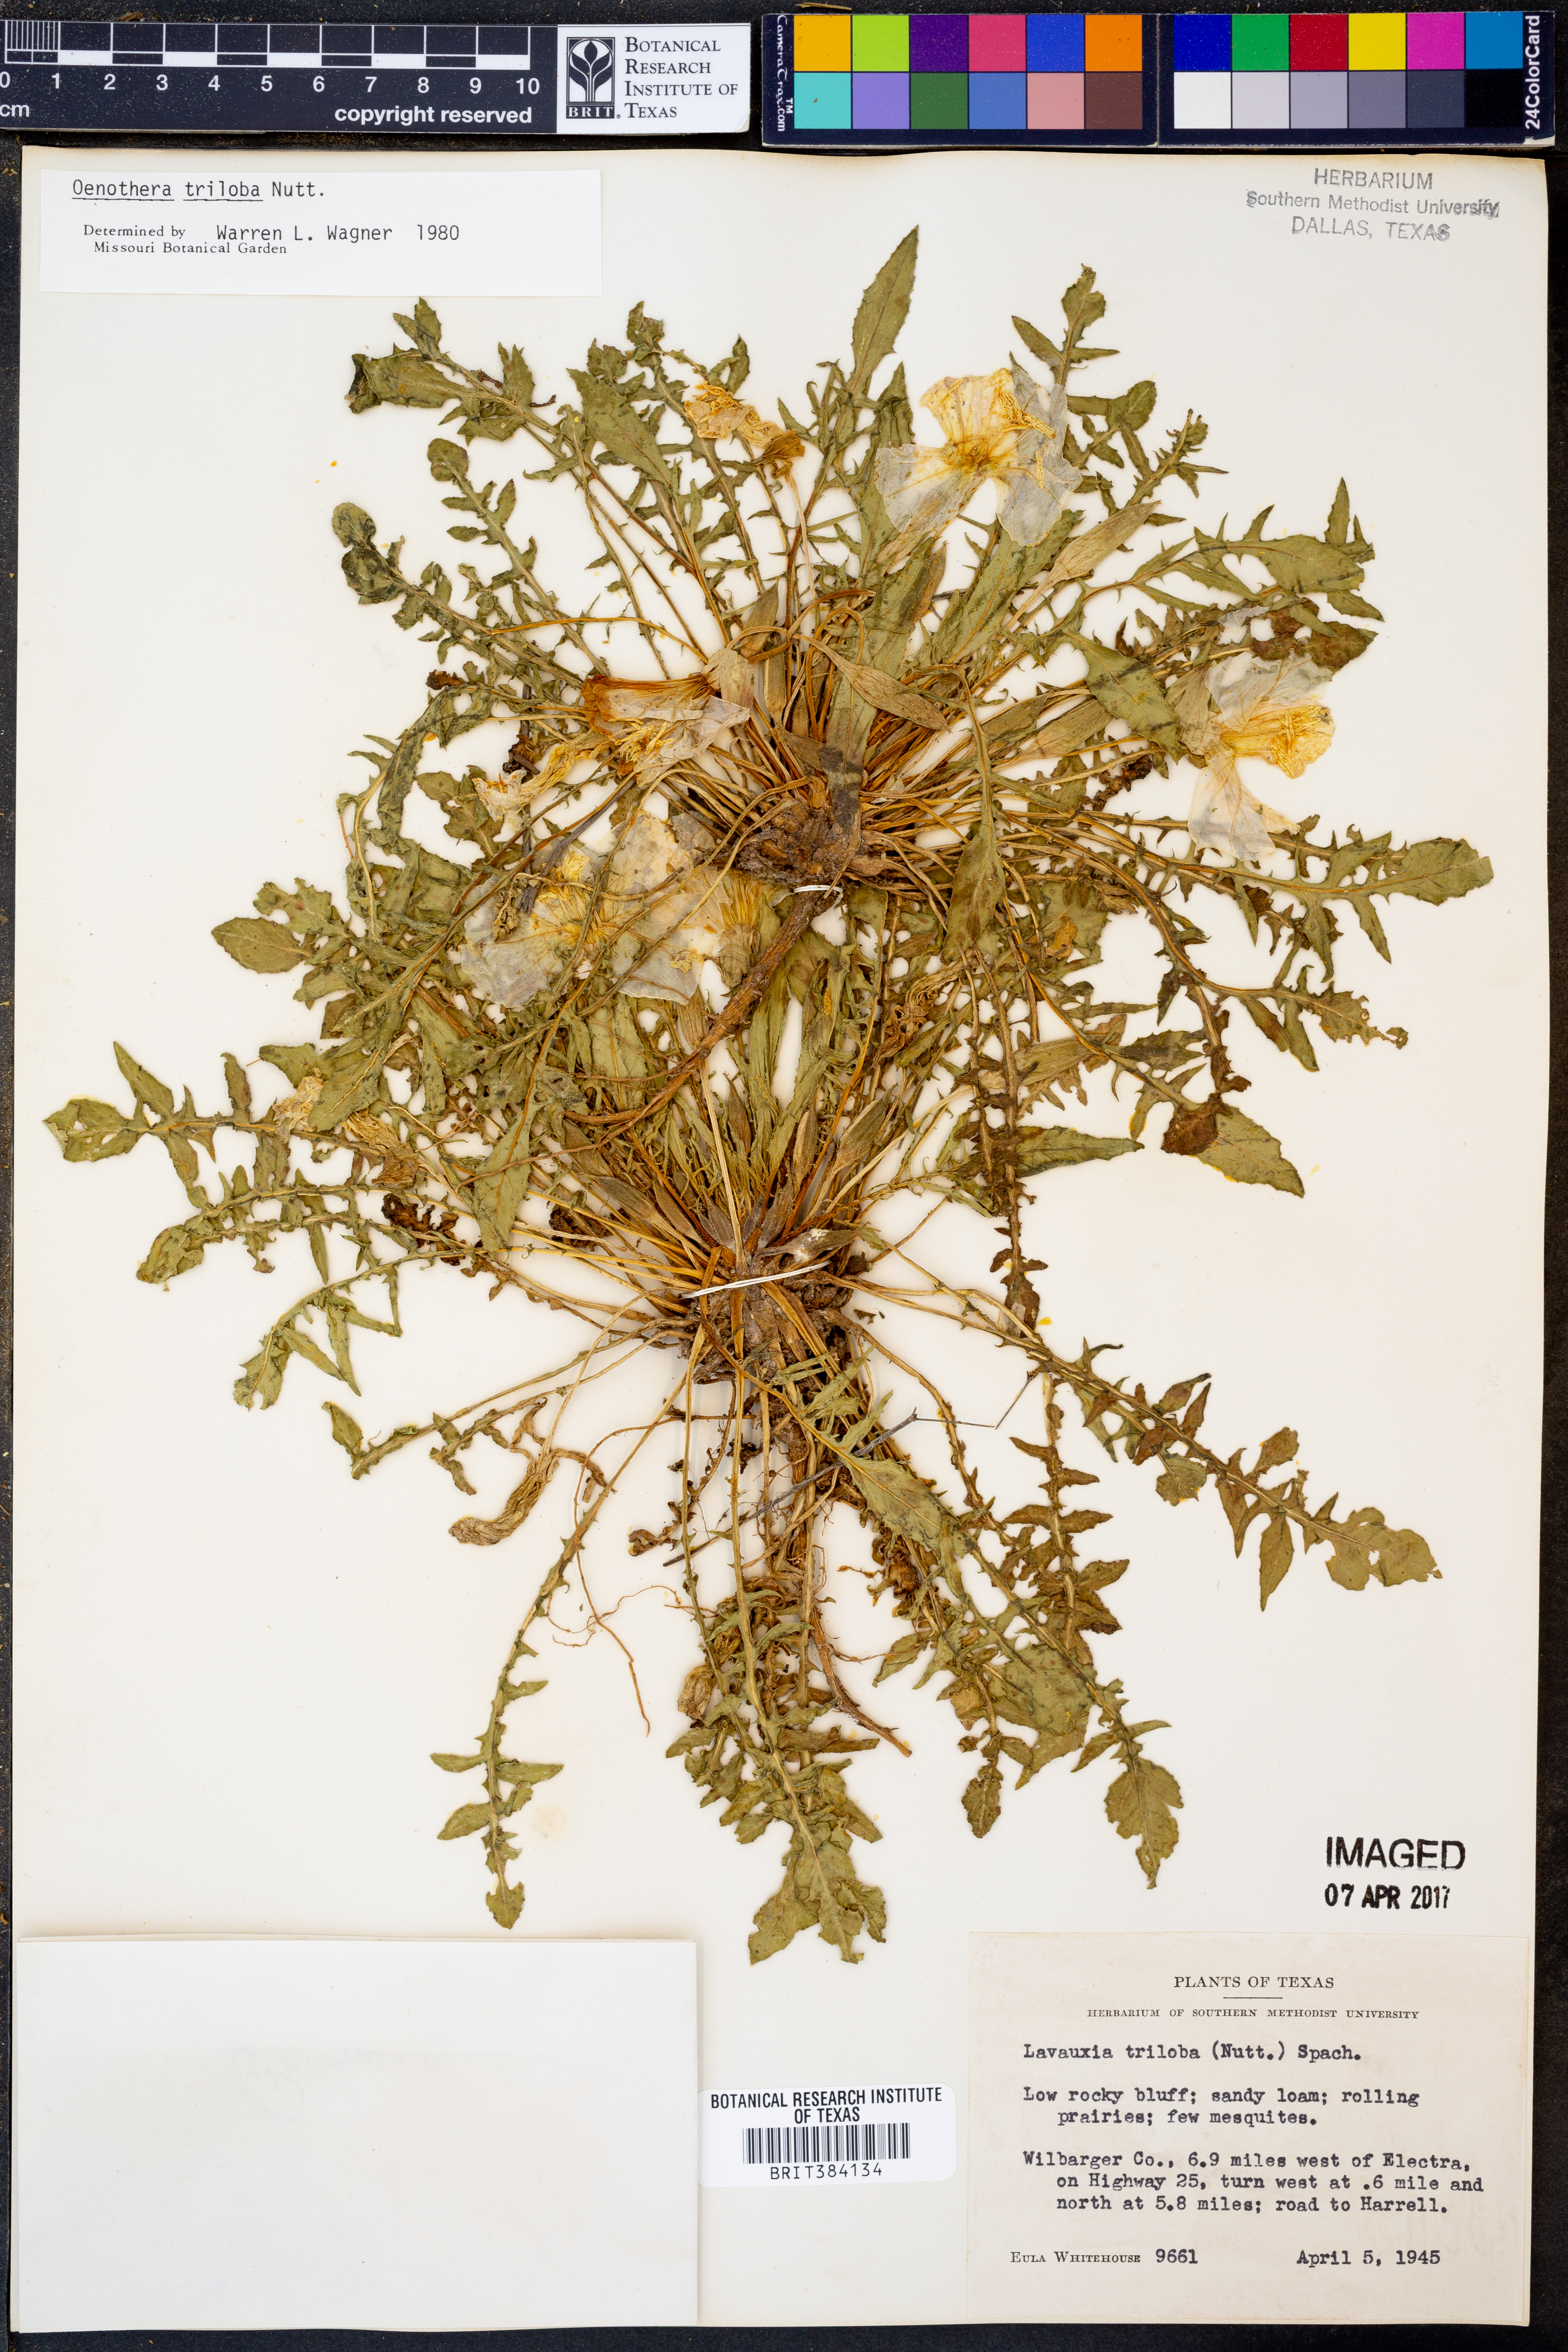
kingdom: Plantae
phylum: Tracheophyta
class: Magnoliopsida
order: Myrtales
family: Onagraceae
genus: Oenothera
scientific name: Oenothera triloba
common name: Sessile evening-primrose
